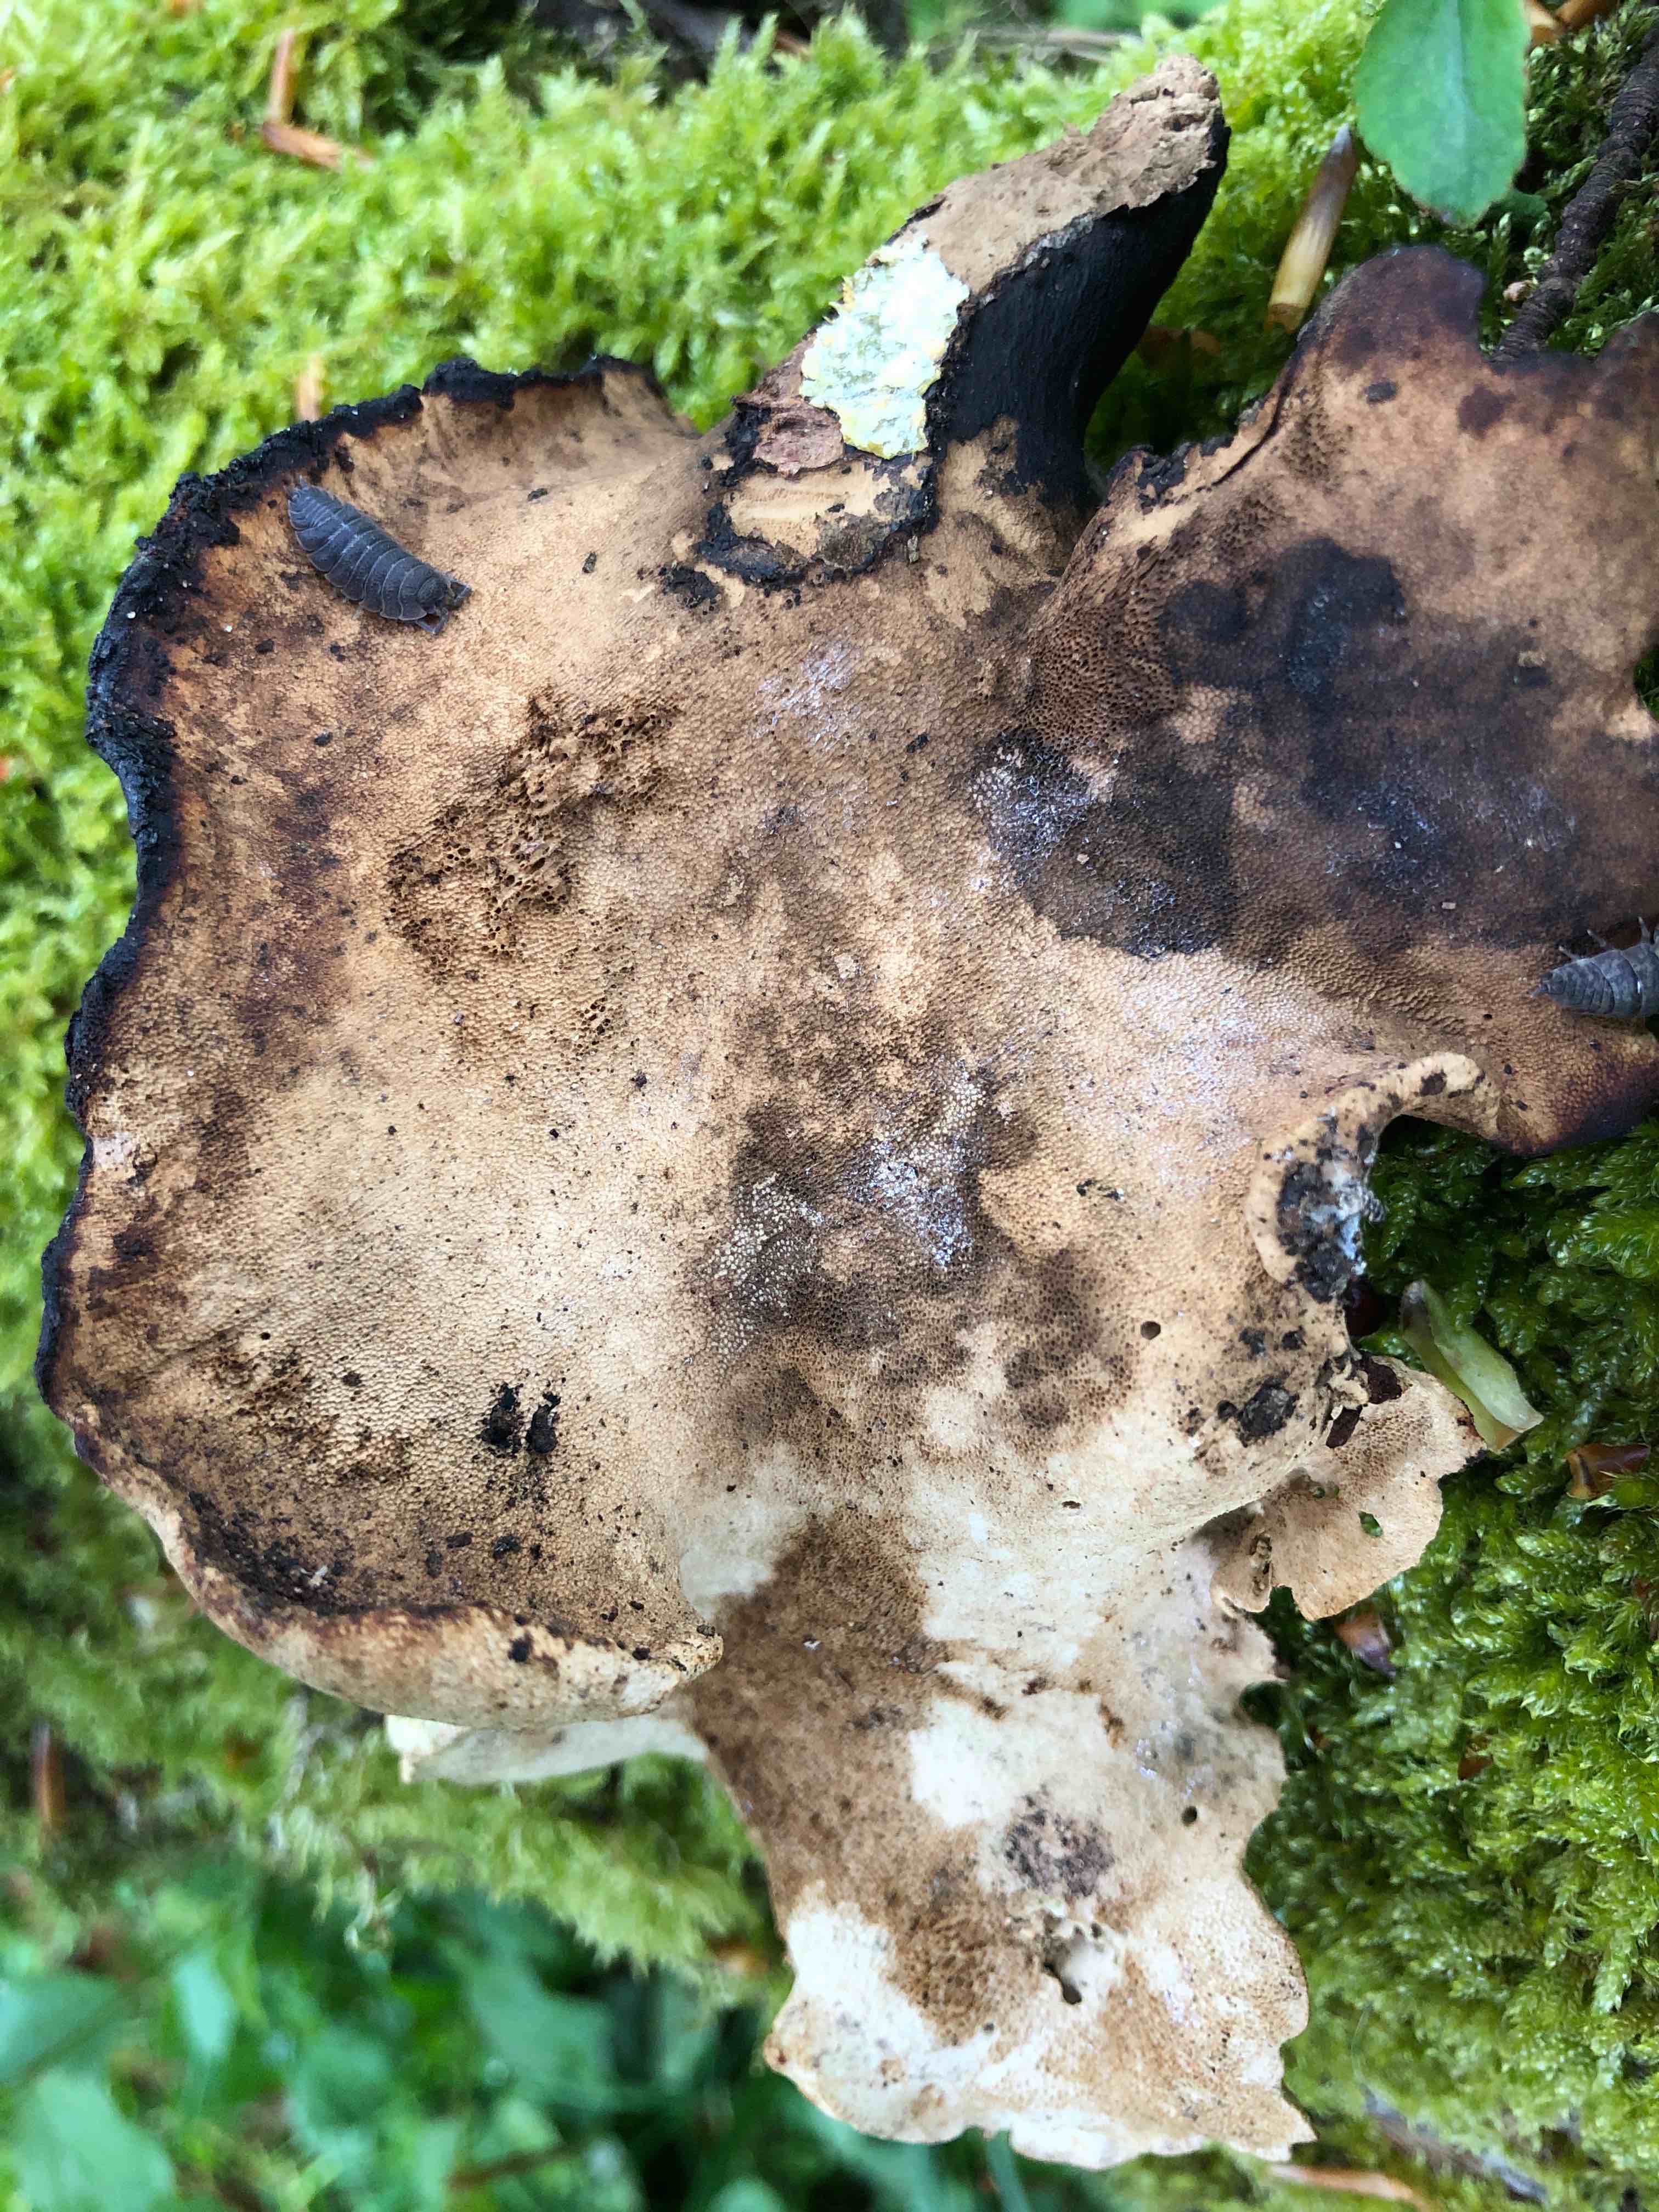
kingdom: Fungi
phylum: Basidiomycota
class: Agaricomycetes
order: Polyporales
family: Polyporaceae
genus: Cerioporus
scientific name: Cerioporus varius
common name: foranderlig stilkporesvamp
